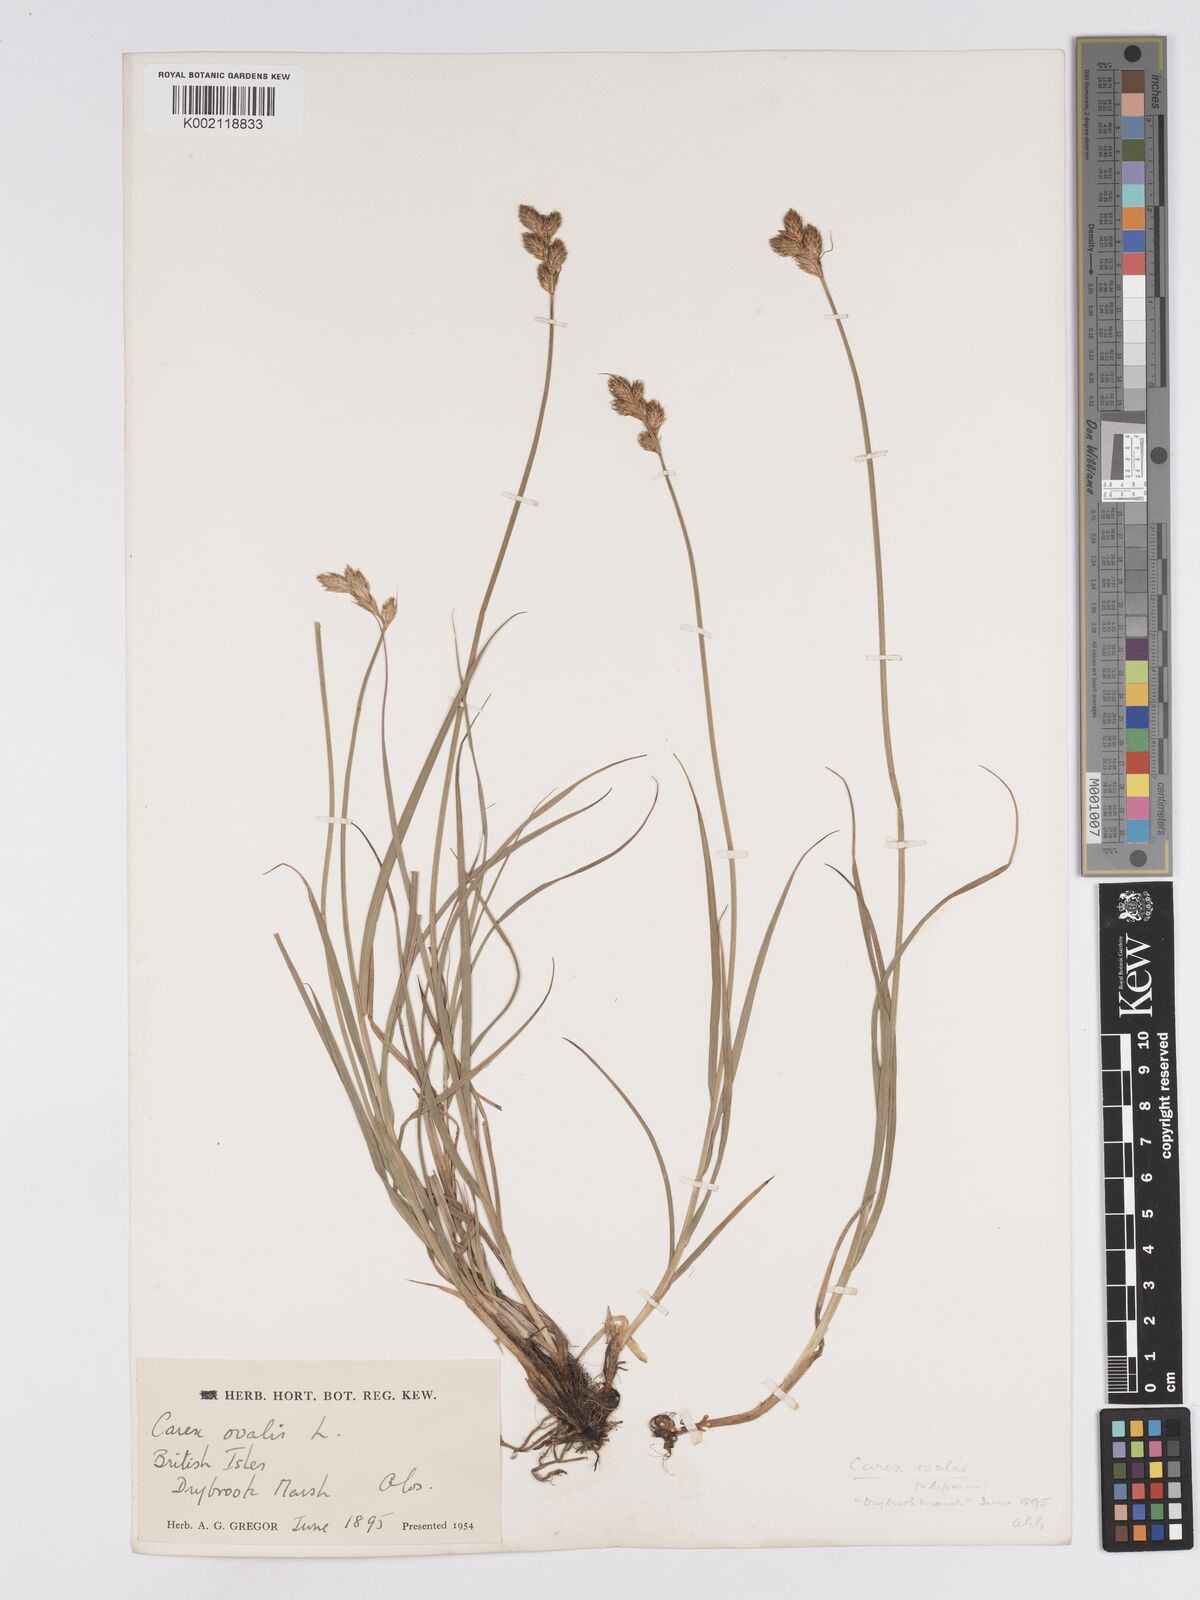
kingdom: Plantae
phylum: Tracheophyta
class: Liliopsida
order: Poales
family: Cyperaceae
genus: Carex
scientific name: Carex leporina
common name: Oval sedge
